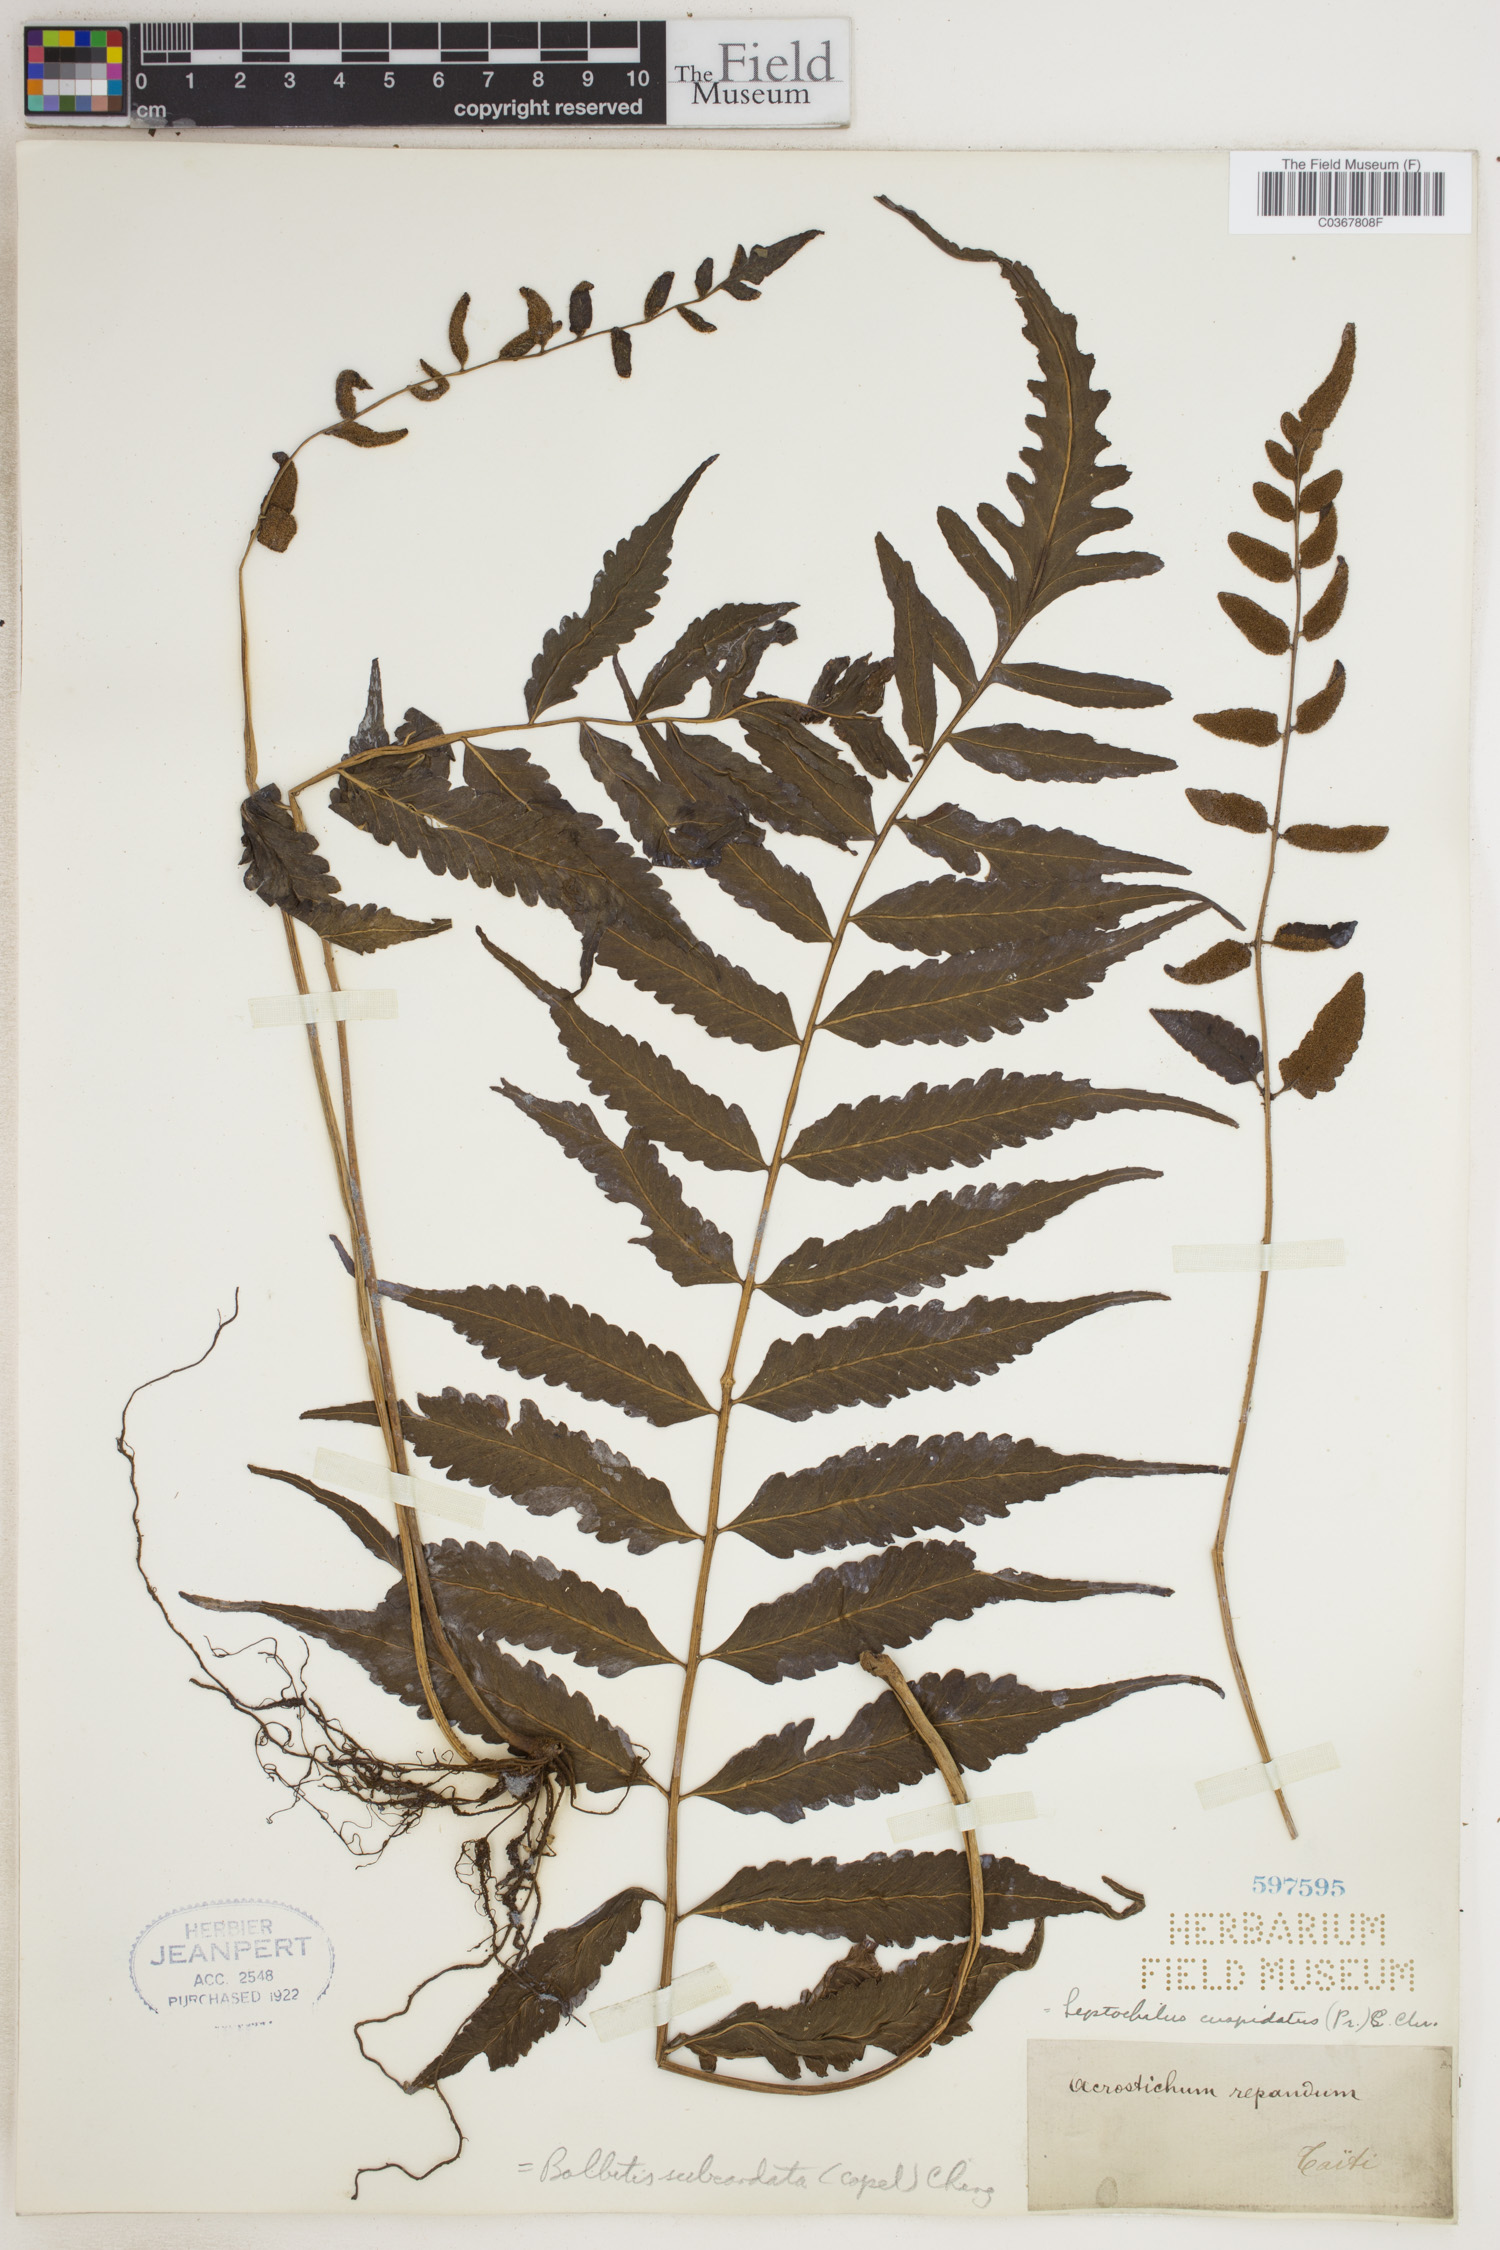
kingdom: Plantae
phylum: Tracheophyta
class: Polypodiopsida
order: Polypodiales
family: Dryopteridaceae
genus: Bolbitis
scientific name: Bolbitis subcordata
